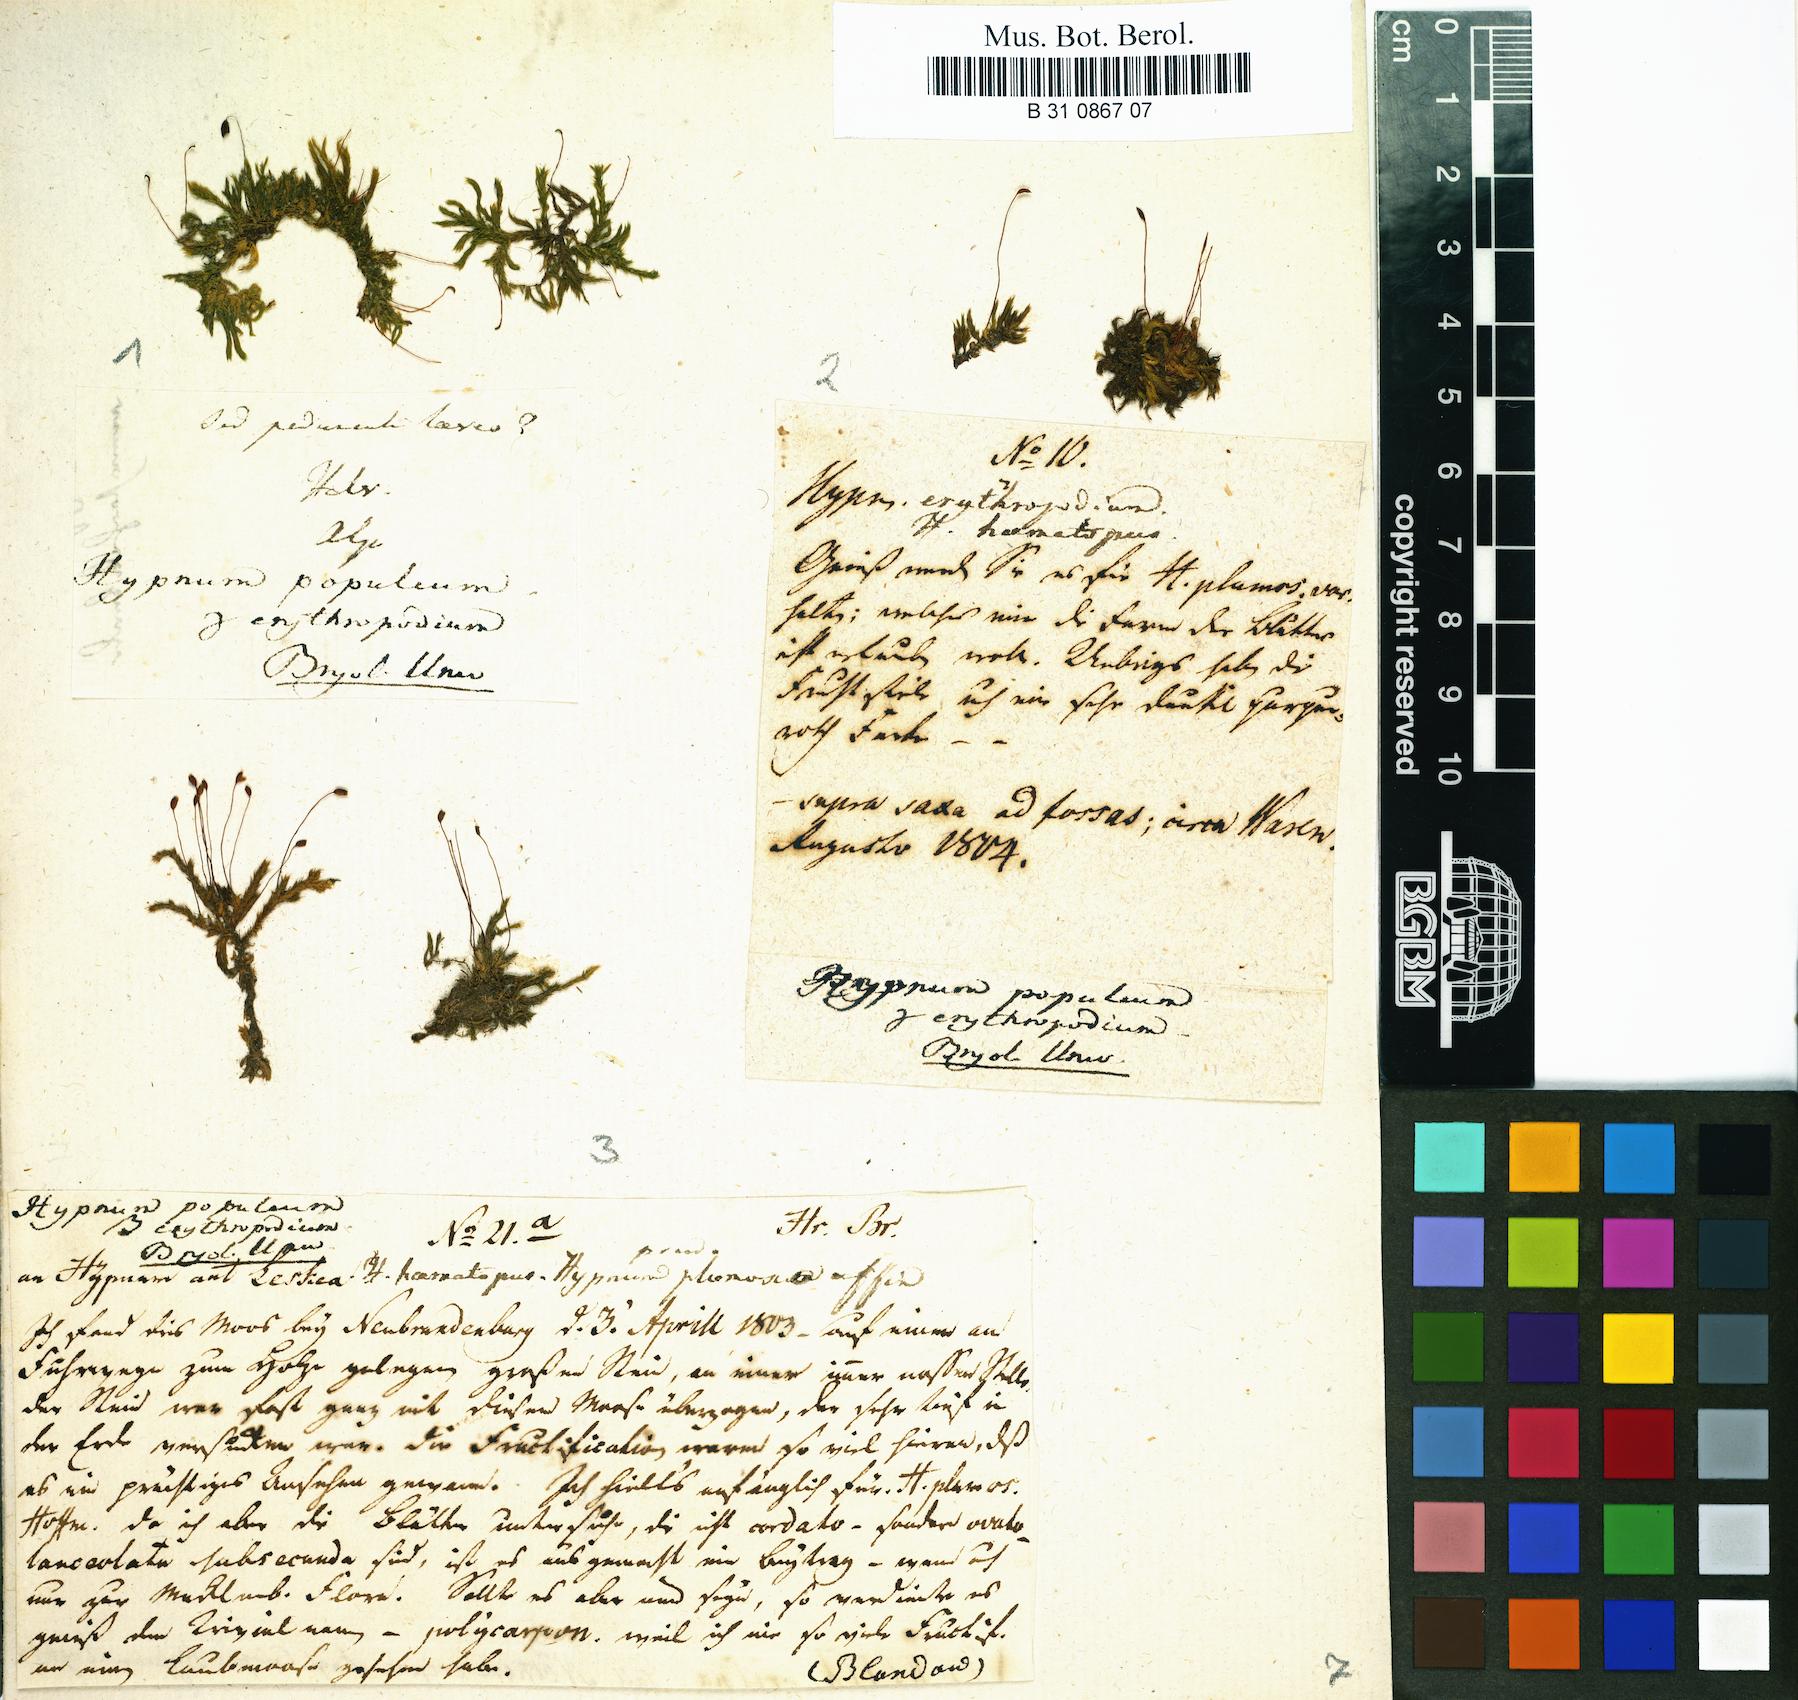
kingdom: Plantae
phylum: Bryophyta
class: Bryopsida
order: Hypnales
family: Brachytheciaceae
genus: Sciuro-hypnum
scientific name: Sciuro-hypnum populeum
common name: Matted feather-moss
